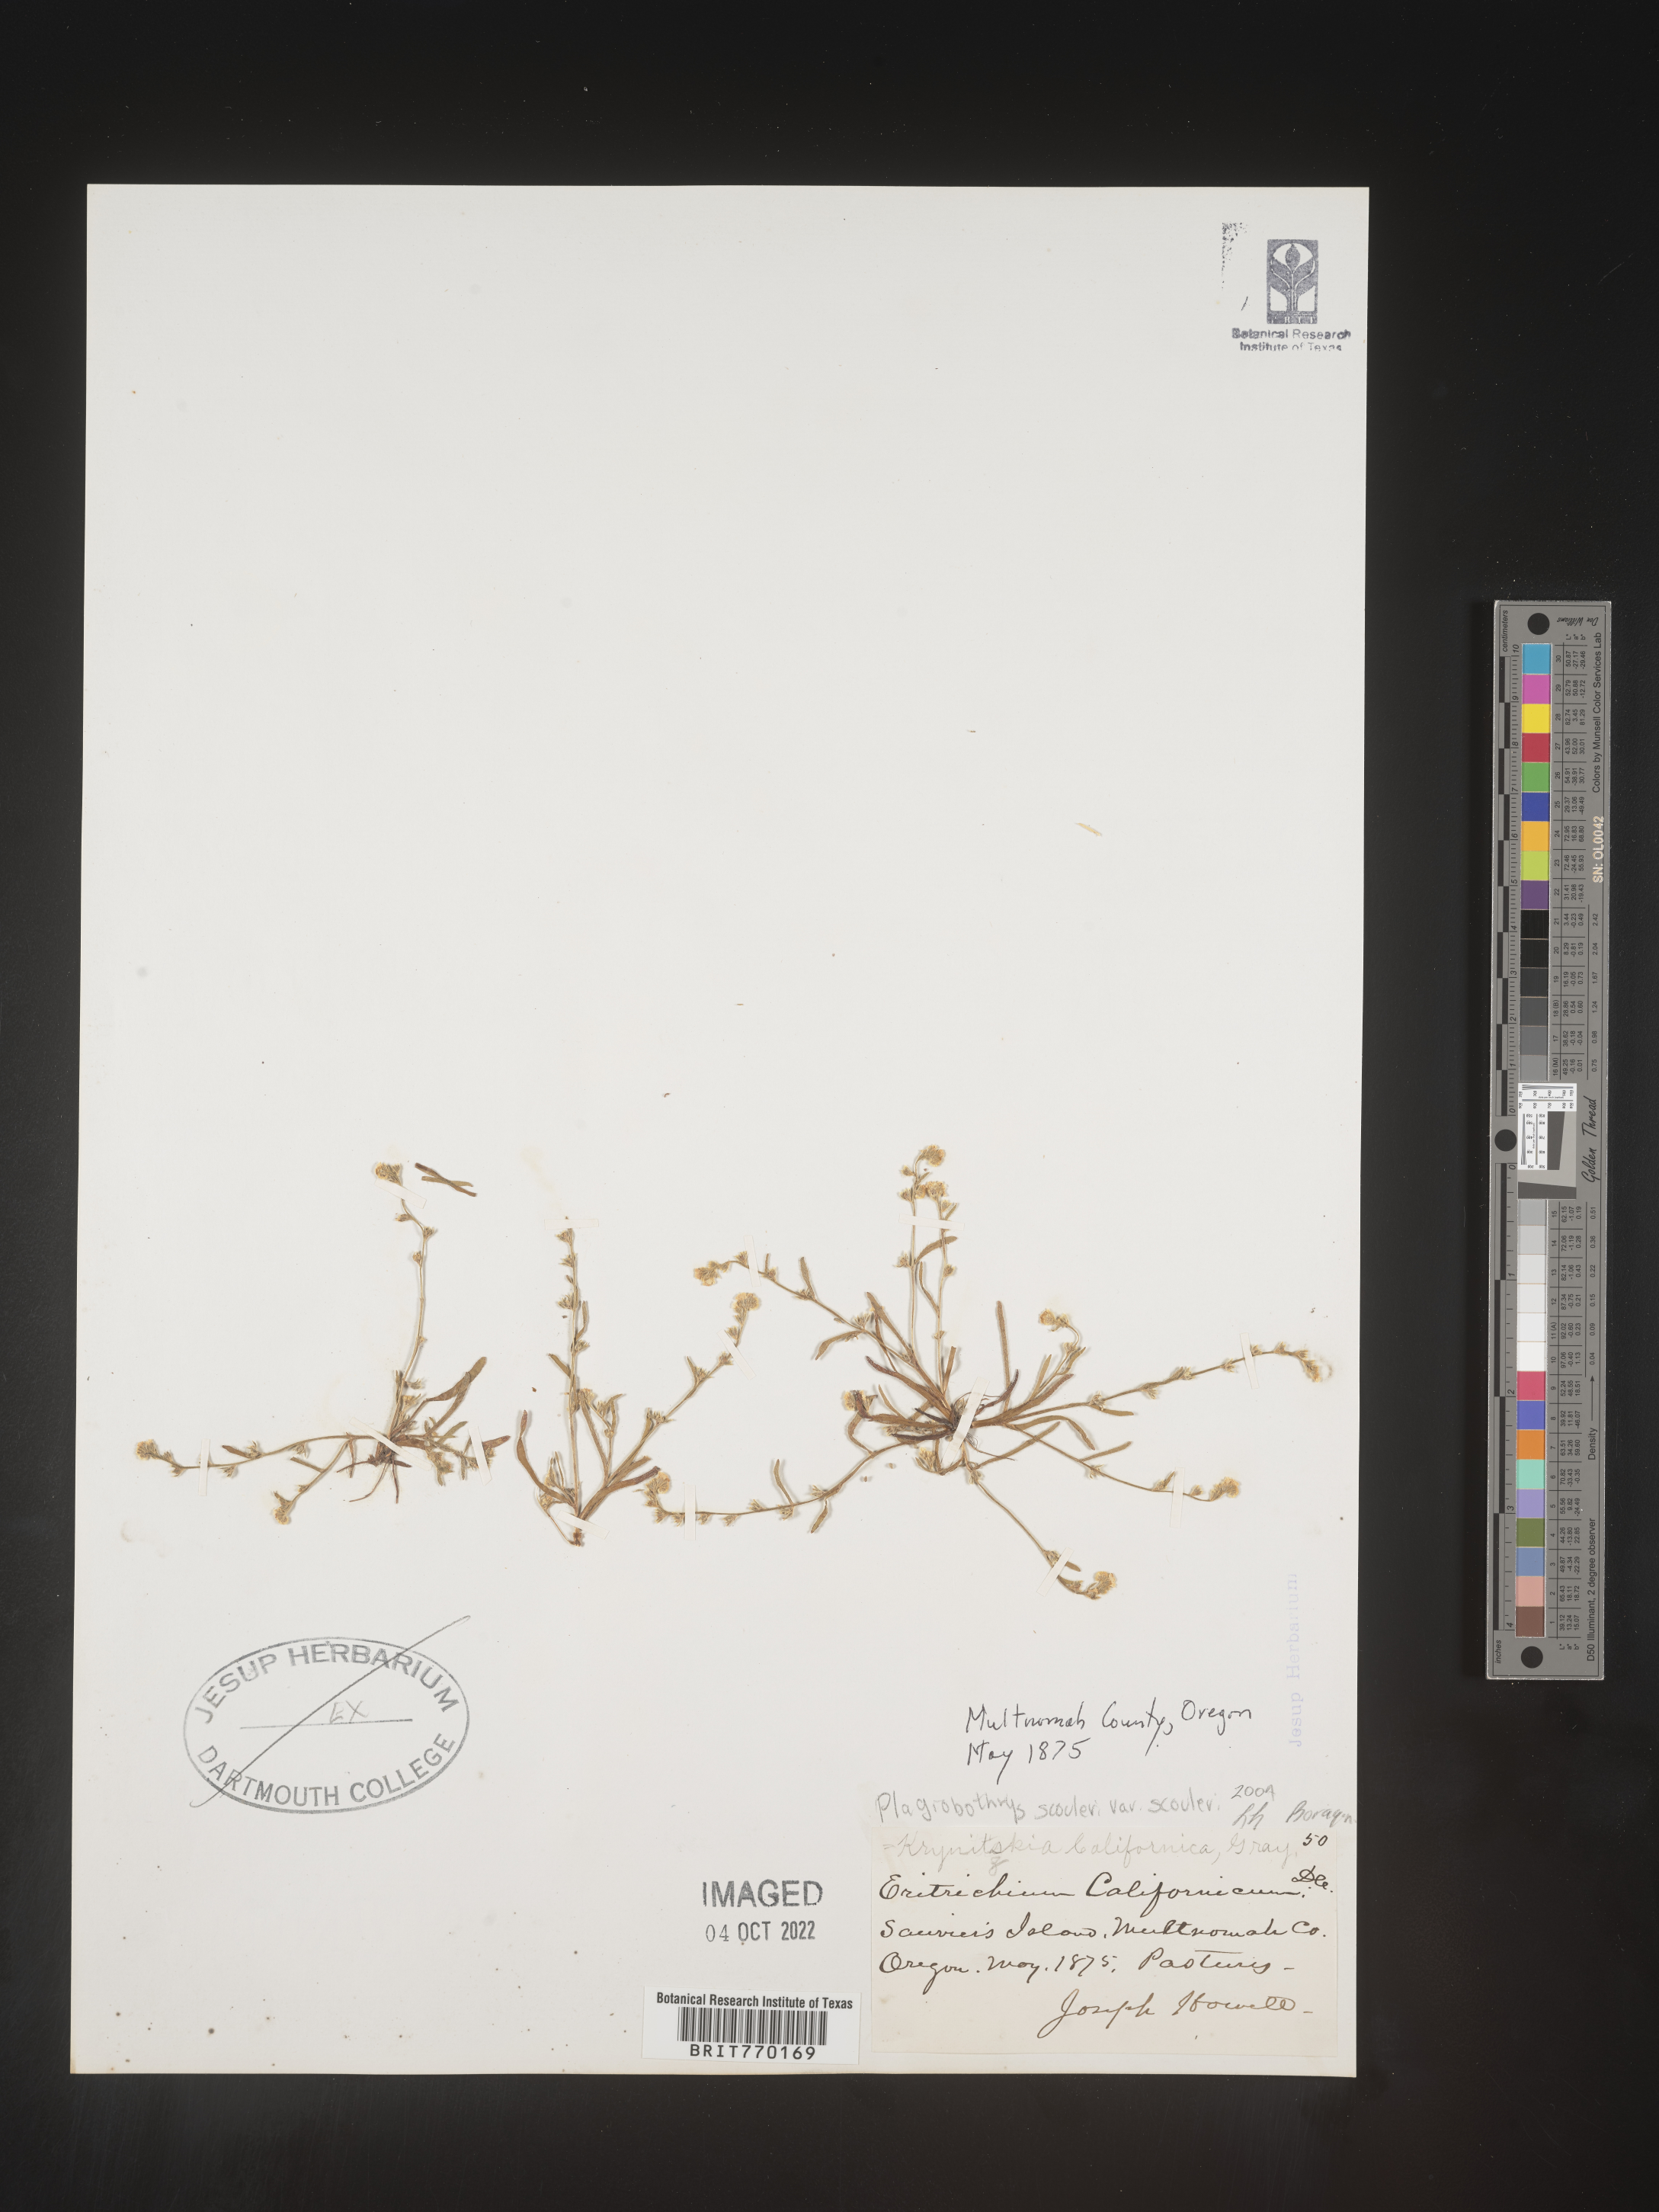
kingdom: Plantae
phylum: Tracheophyta
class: Magnoliopsida
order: Boraginales
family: Boraginaceae
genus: Plagiobothrys
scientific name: Plagiobothrys
